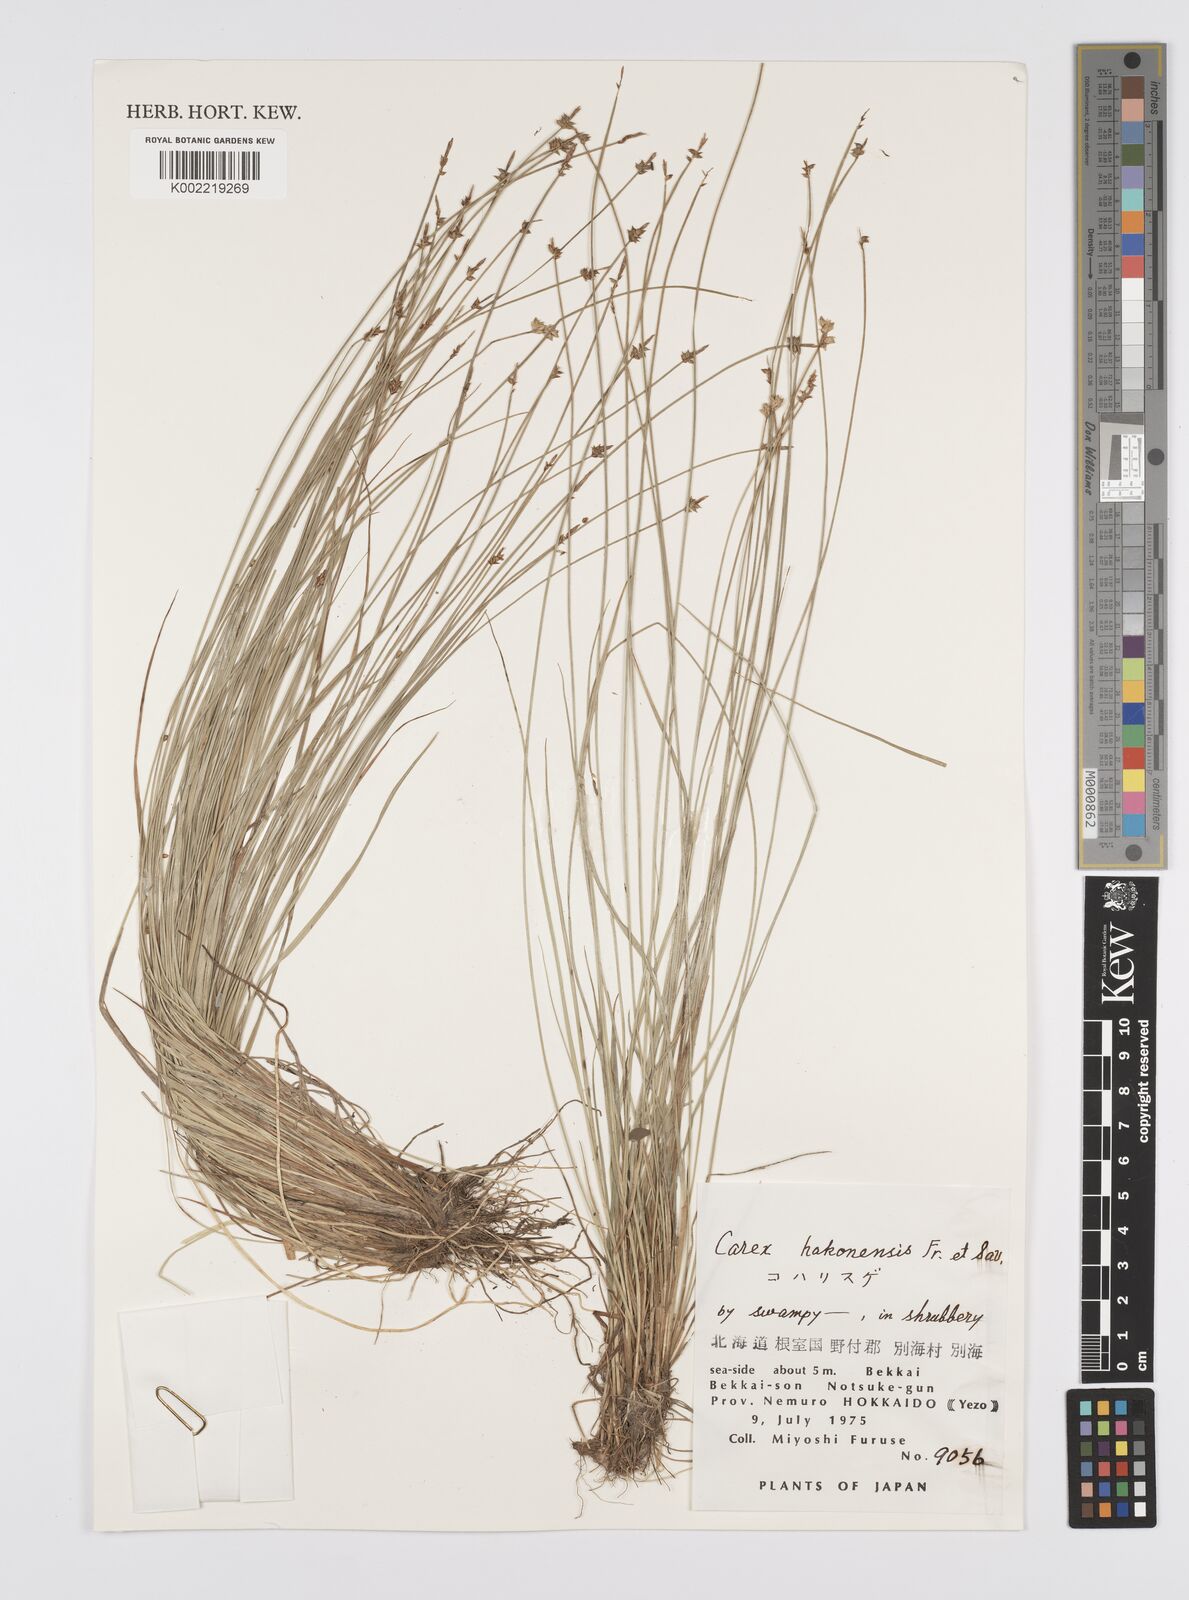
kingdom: Plantae
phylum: Tracheophyta
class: Liliopsida
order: Poales
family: Cyperaceae
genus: Carex
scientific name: Carex onoei
